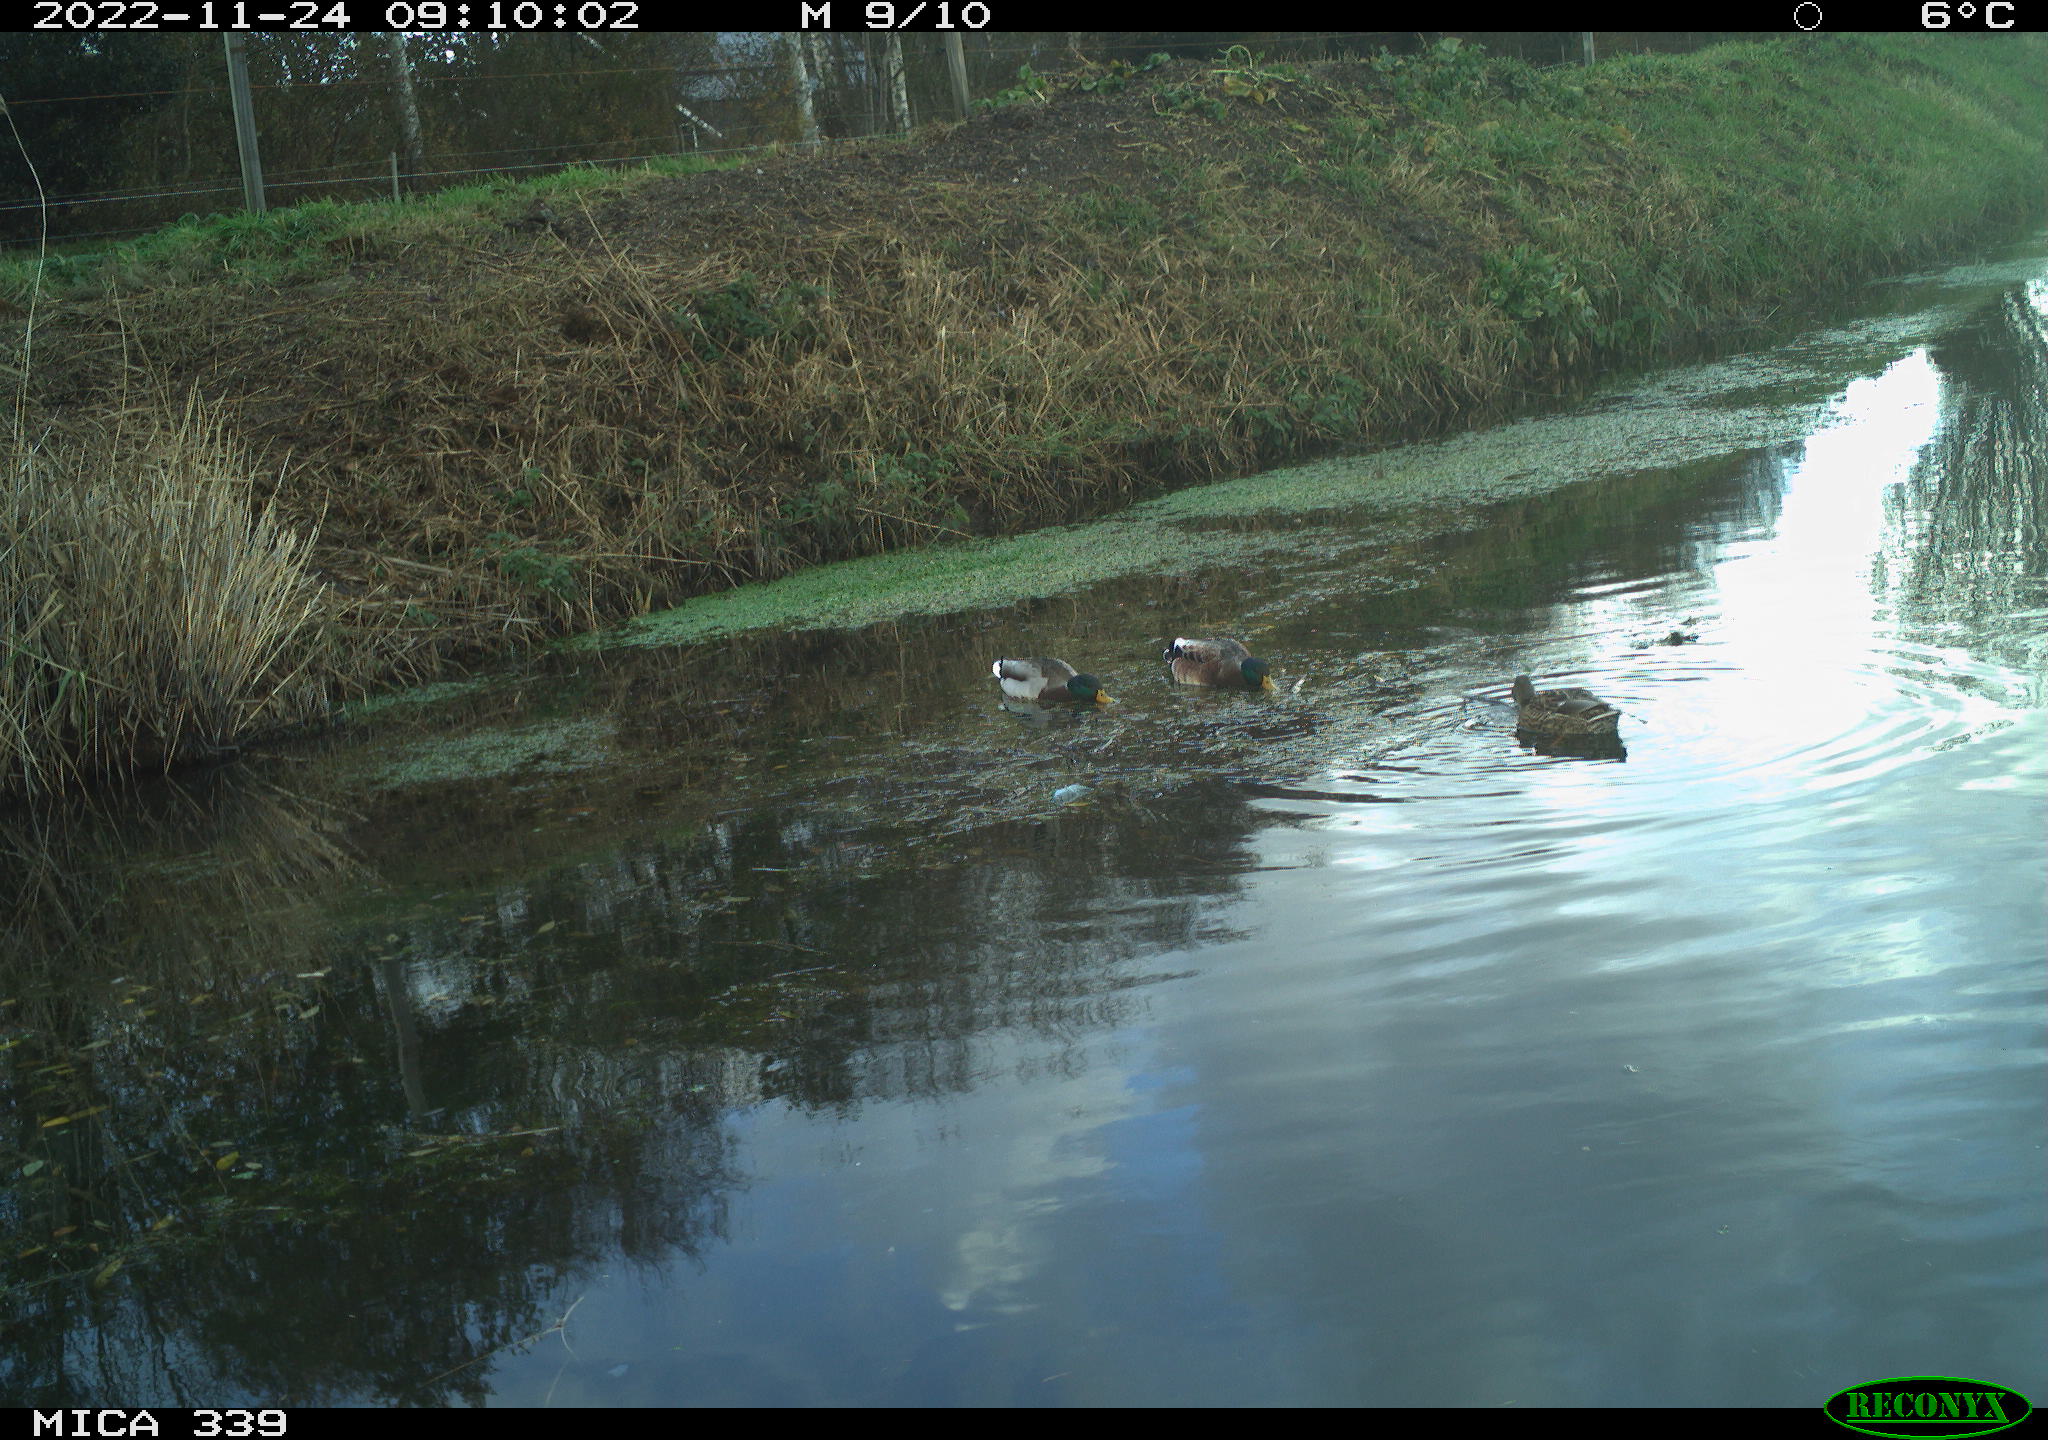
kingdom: Animalia
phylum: Chordata
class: Aves
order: Anseriformes
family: Anatidae
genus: Anas
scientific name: Anas
